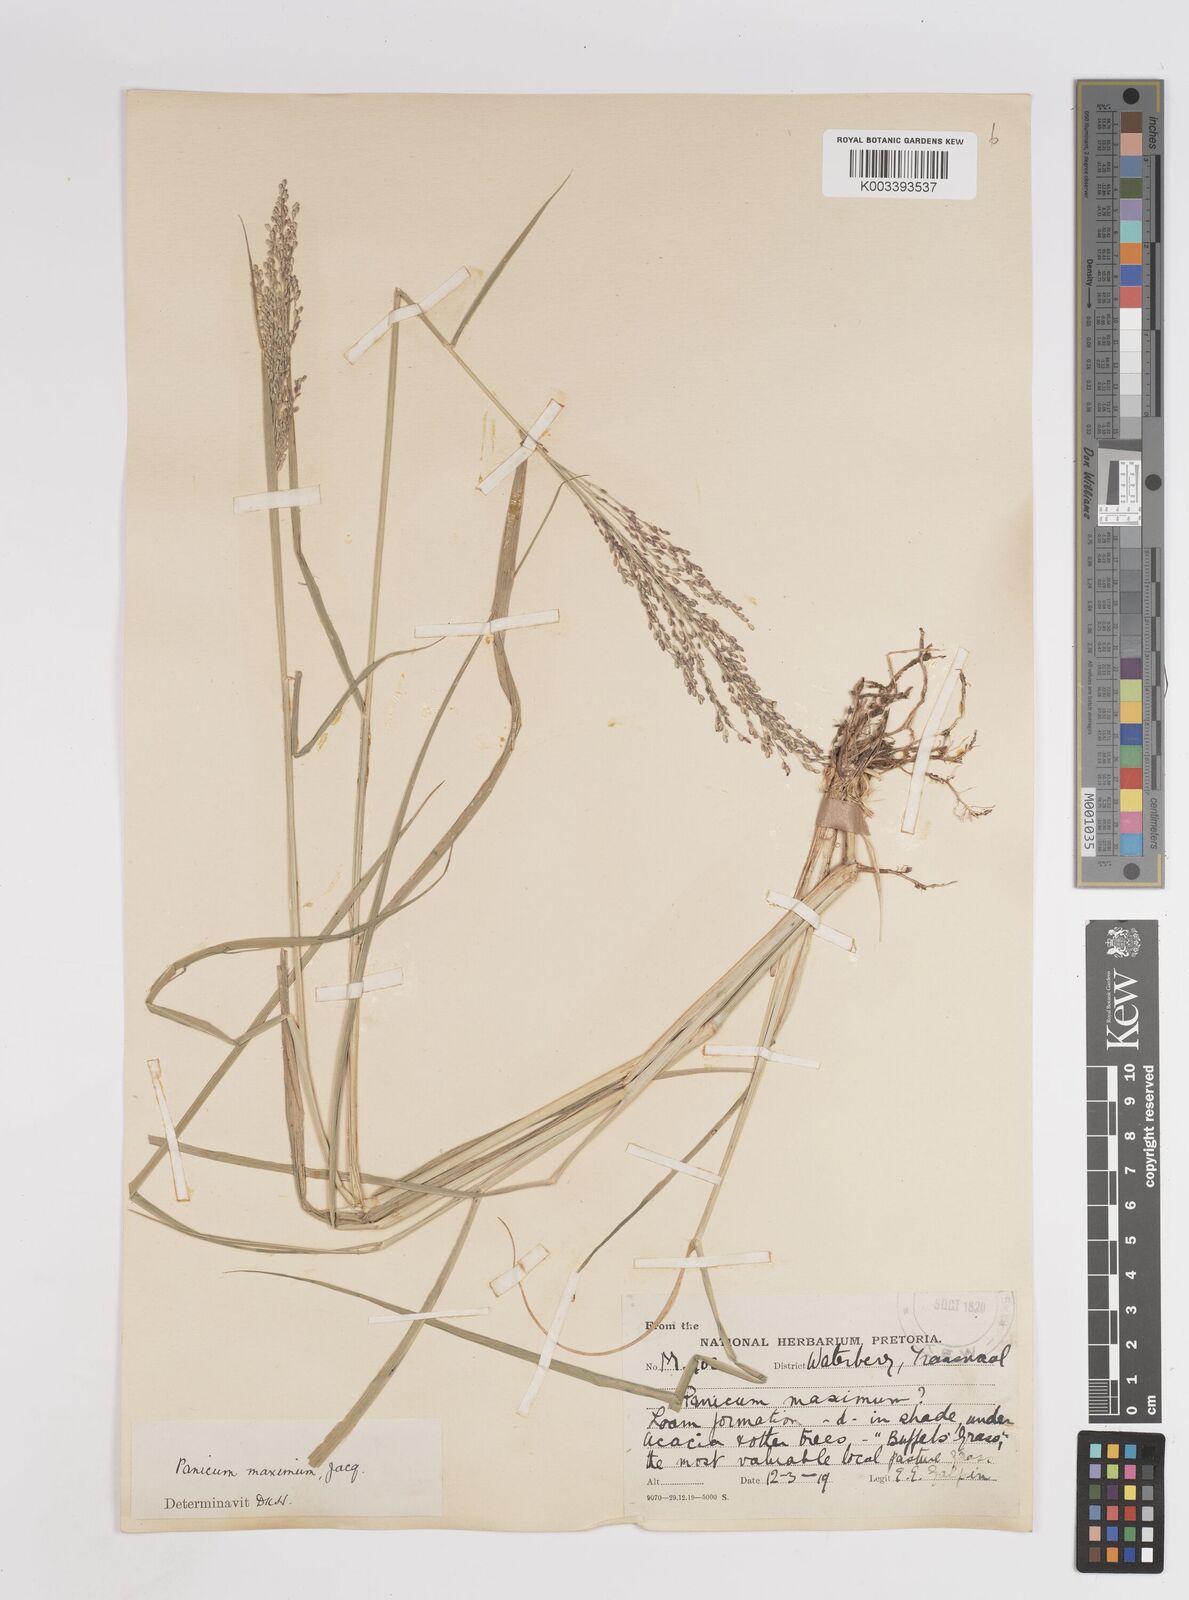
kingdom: Plantae
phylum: Tracheophyta
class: Liliopsida
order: Poales
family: Poaceae
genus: Megathyrsus
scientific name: Megathyrsus maximus
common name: Guineagrass
